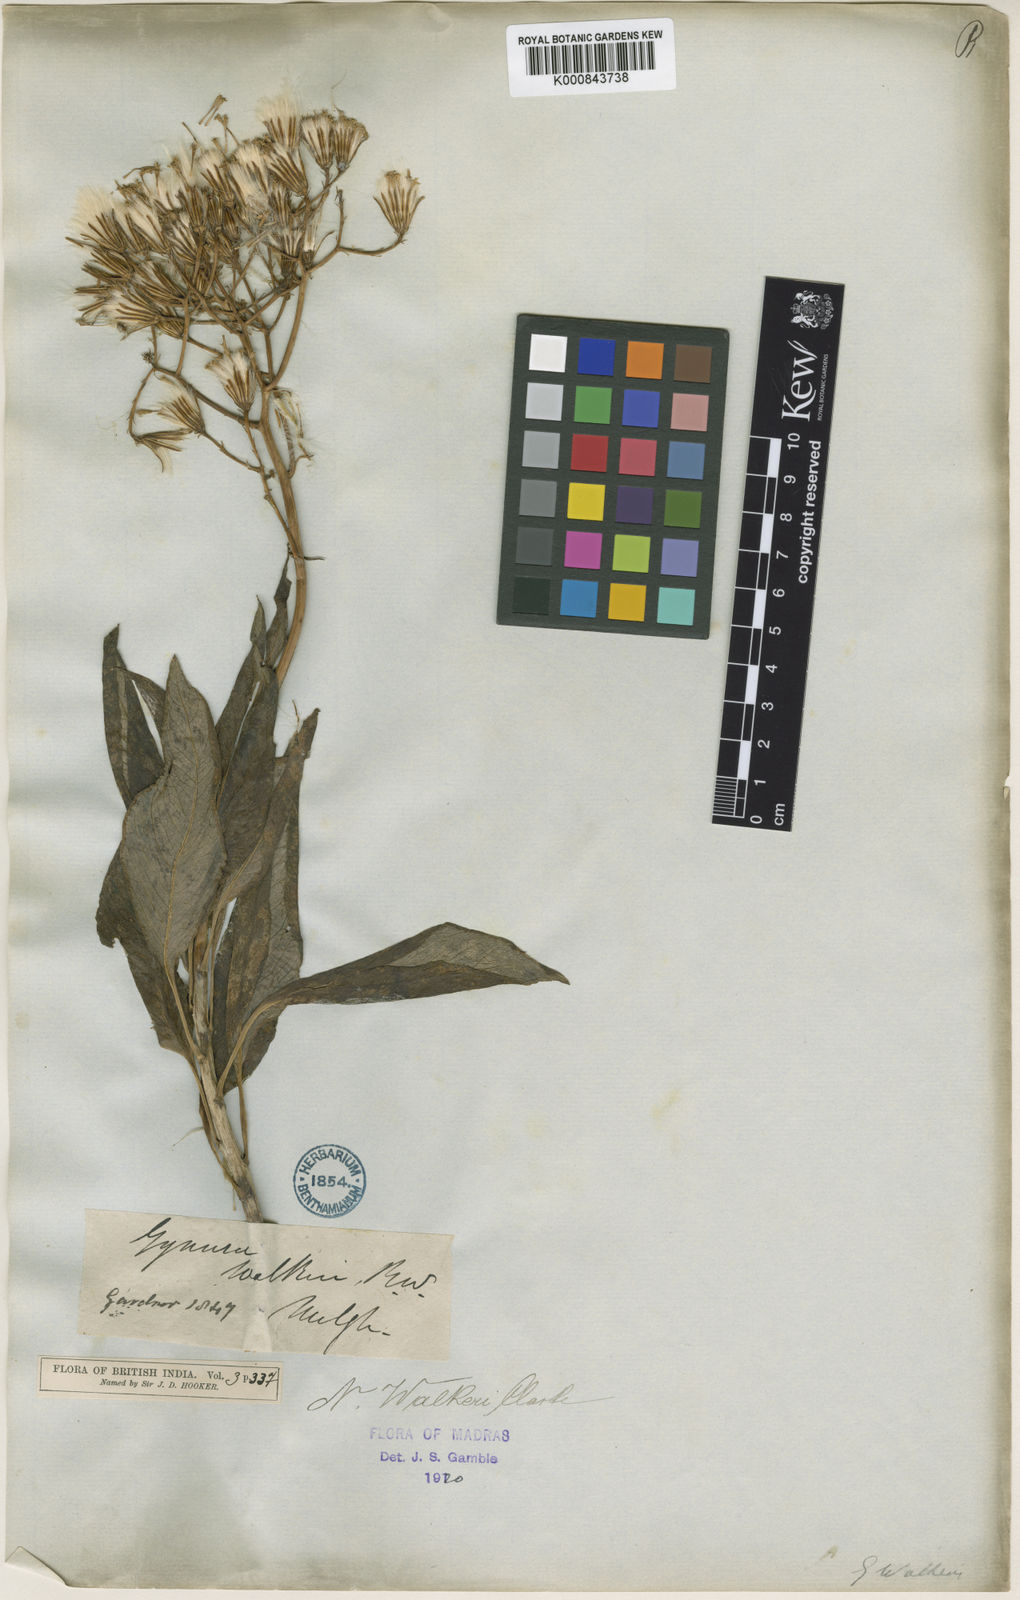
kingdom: Plantae
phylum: Tracheophyta
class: Magnoliopsida
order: Asterales
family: Asteraceae
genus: Kleinia
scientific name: Kleinia
